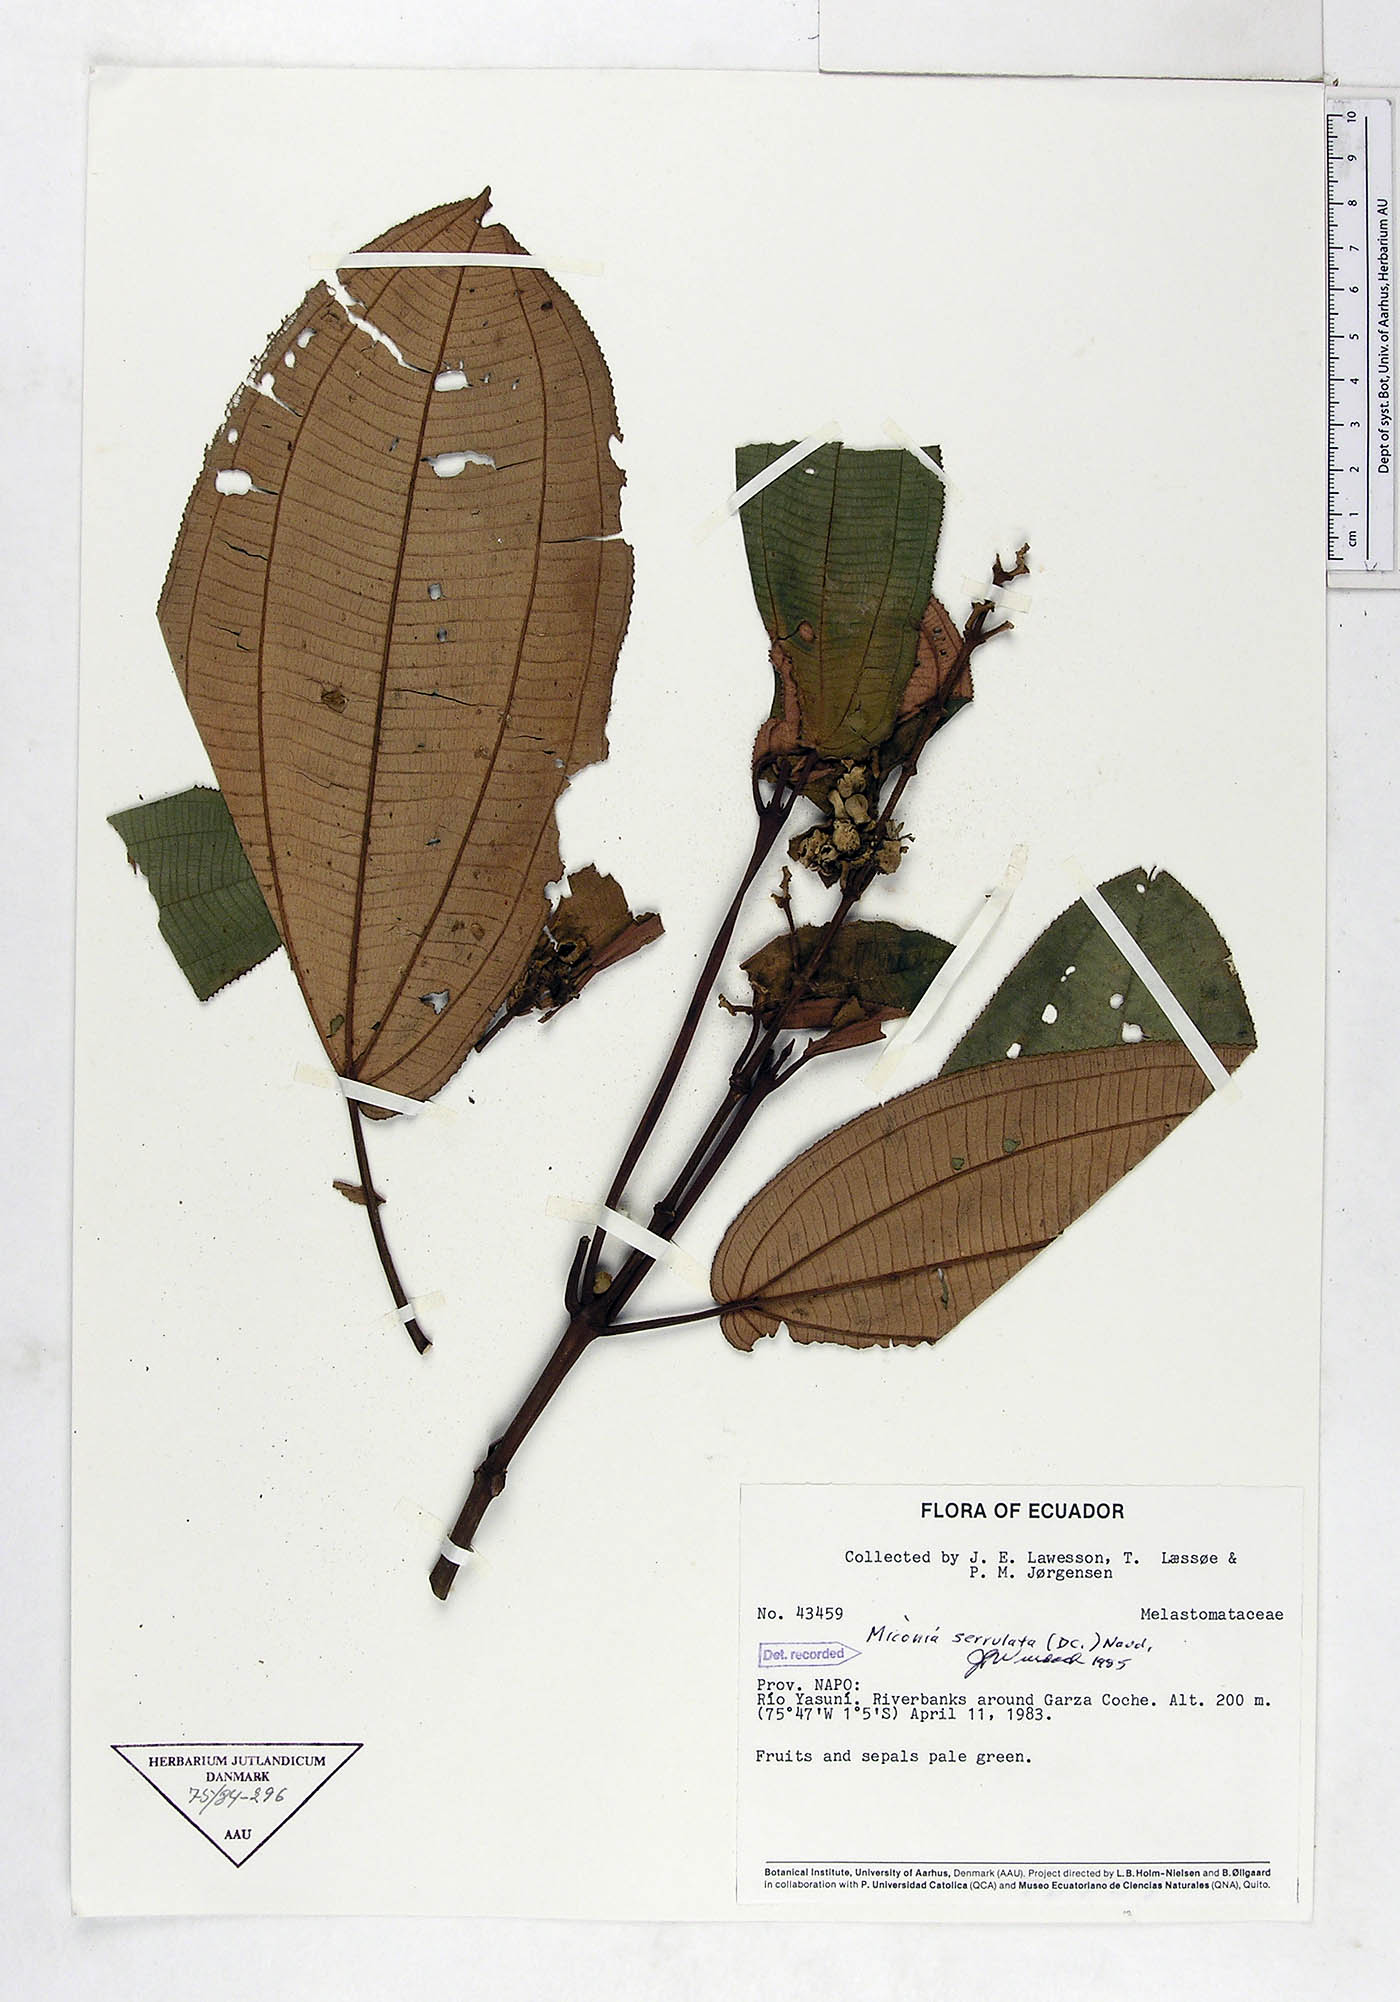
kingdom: Plantae
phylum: Tracheophyta
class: Magnoliopsida
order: Myrtales
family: Melastomataceae
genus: Miconia
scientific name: Miconia serrulata
